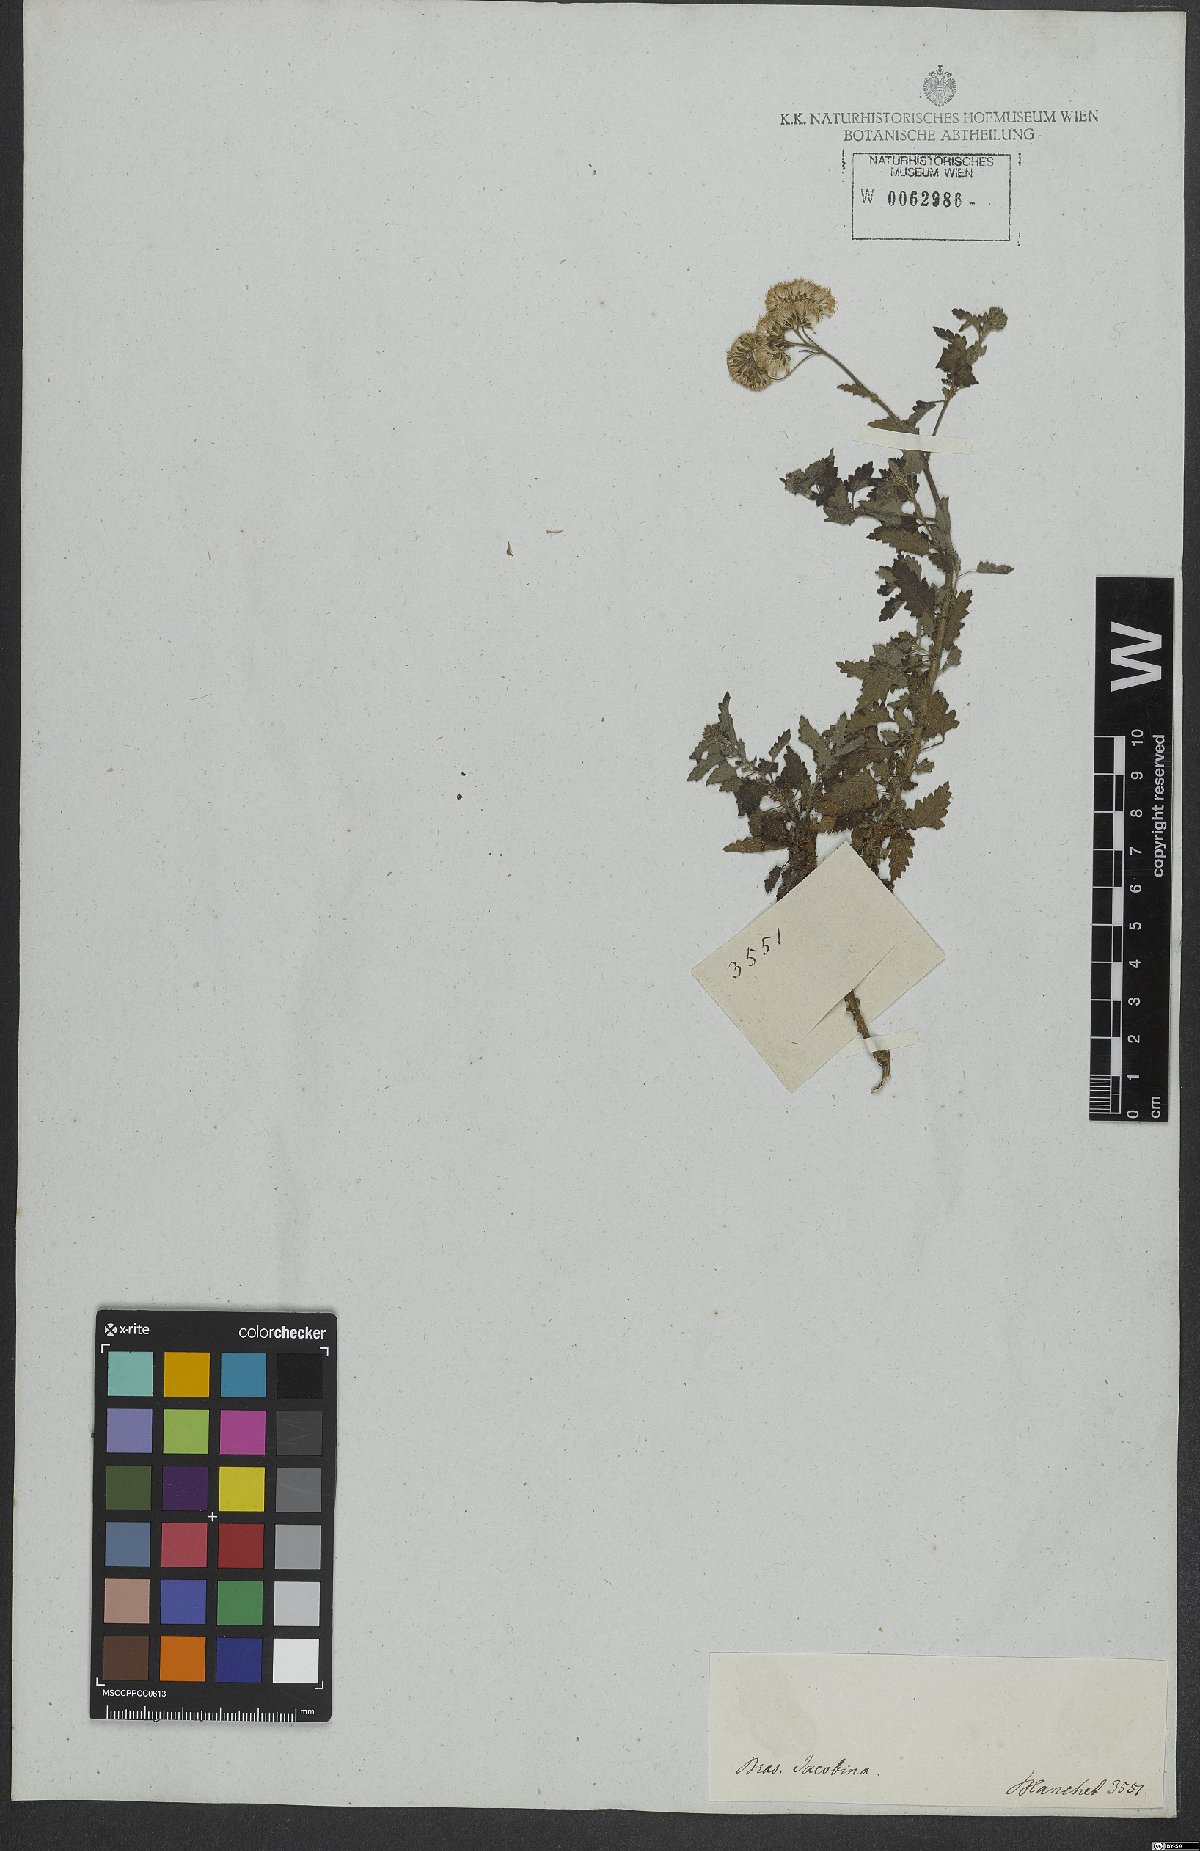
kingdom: Plantae
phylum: Tracheophyta
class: Magnoliopsida
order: Asterales
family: Asteraceae
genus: Conocliniopsis
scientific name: Conocliniopsis grossedentata
